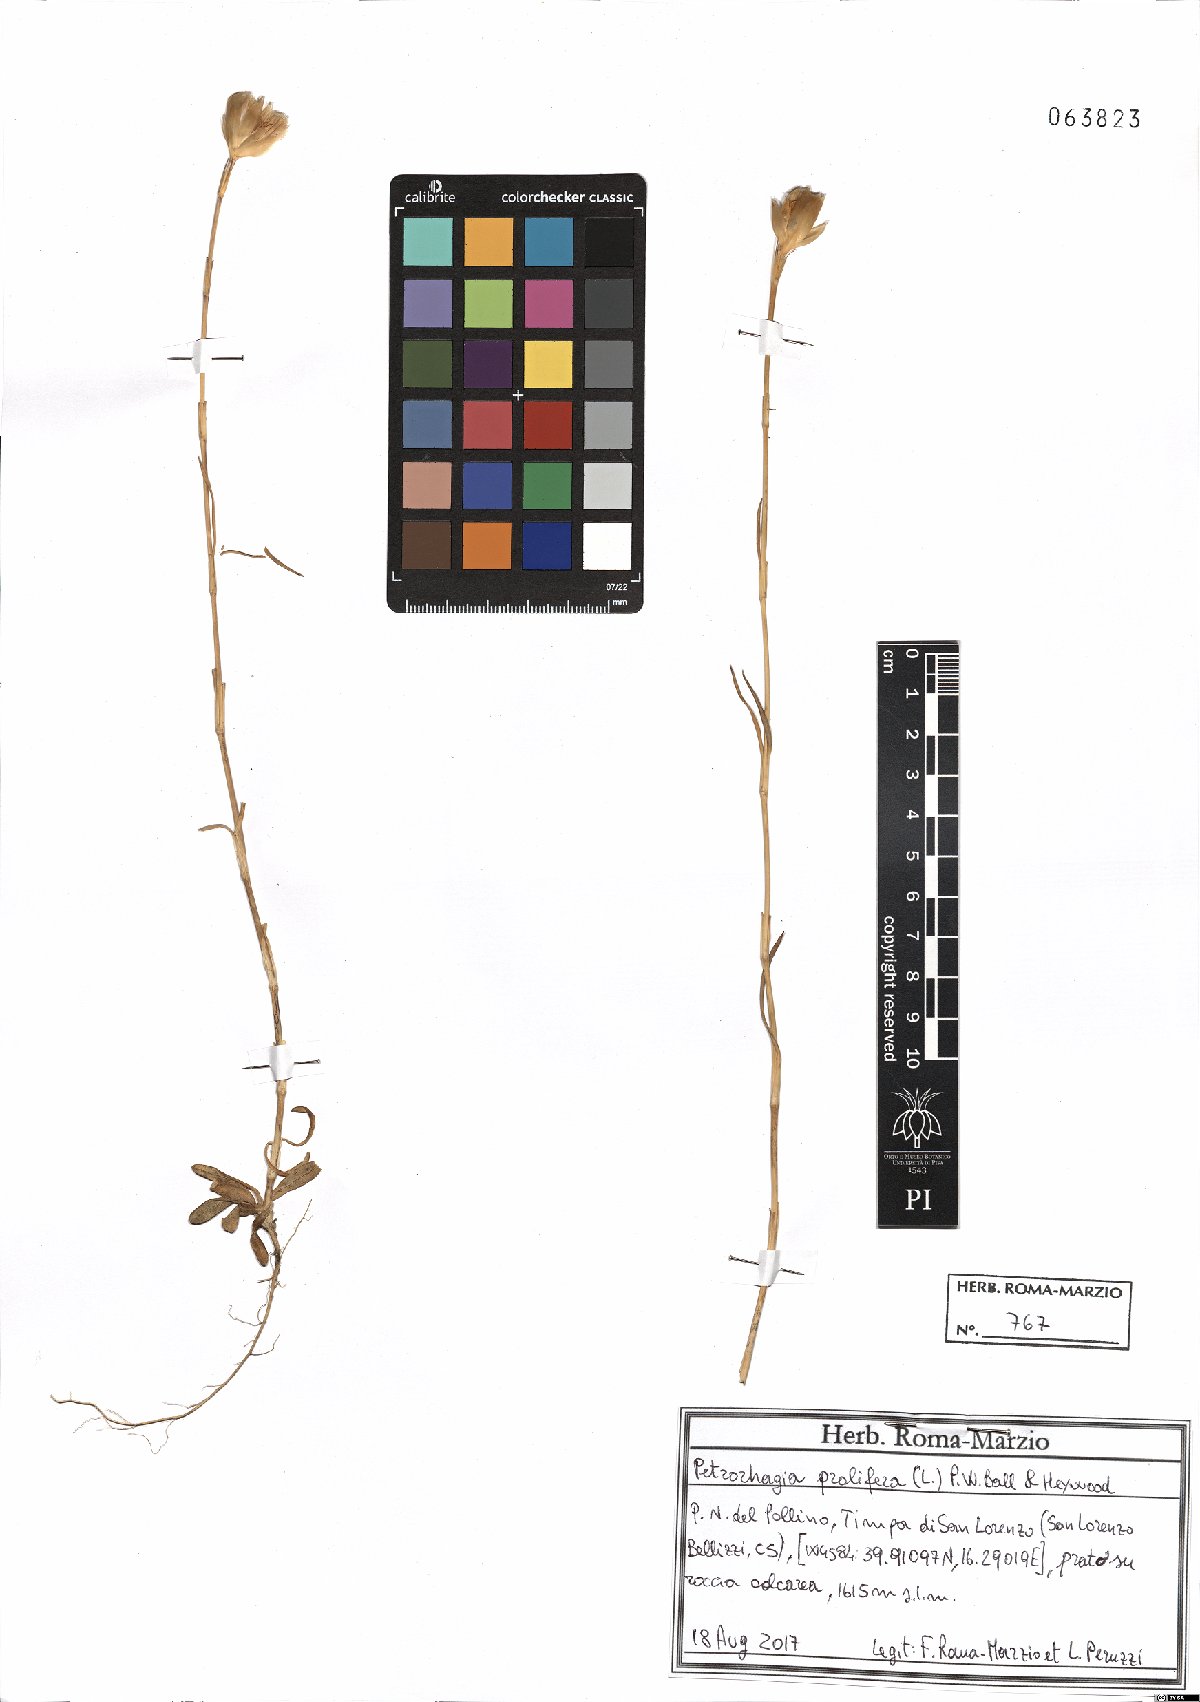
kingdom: Plantae
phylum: Tracheophyta
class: Magnoliopsida
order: Caryophyllales
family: Caryophyllaceae
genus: Petrorhagia
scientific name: Petrorhagia prolifera
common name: Proliferous pink
